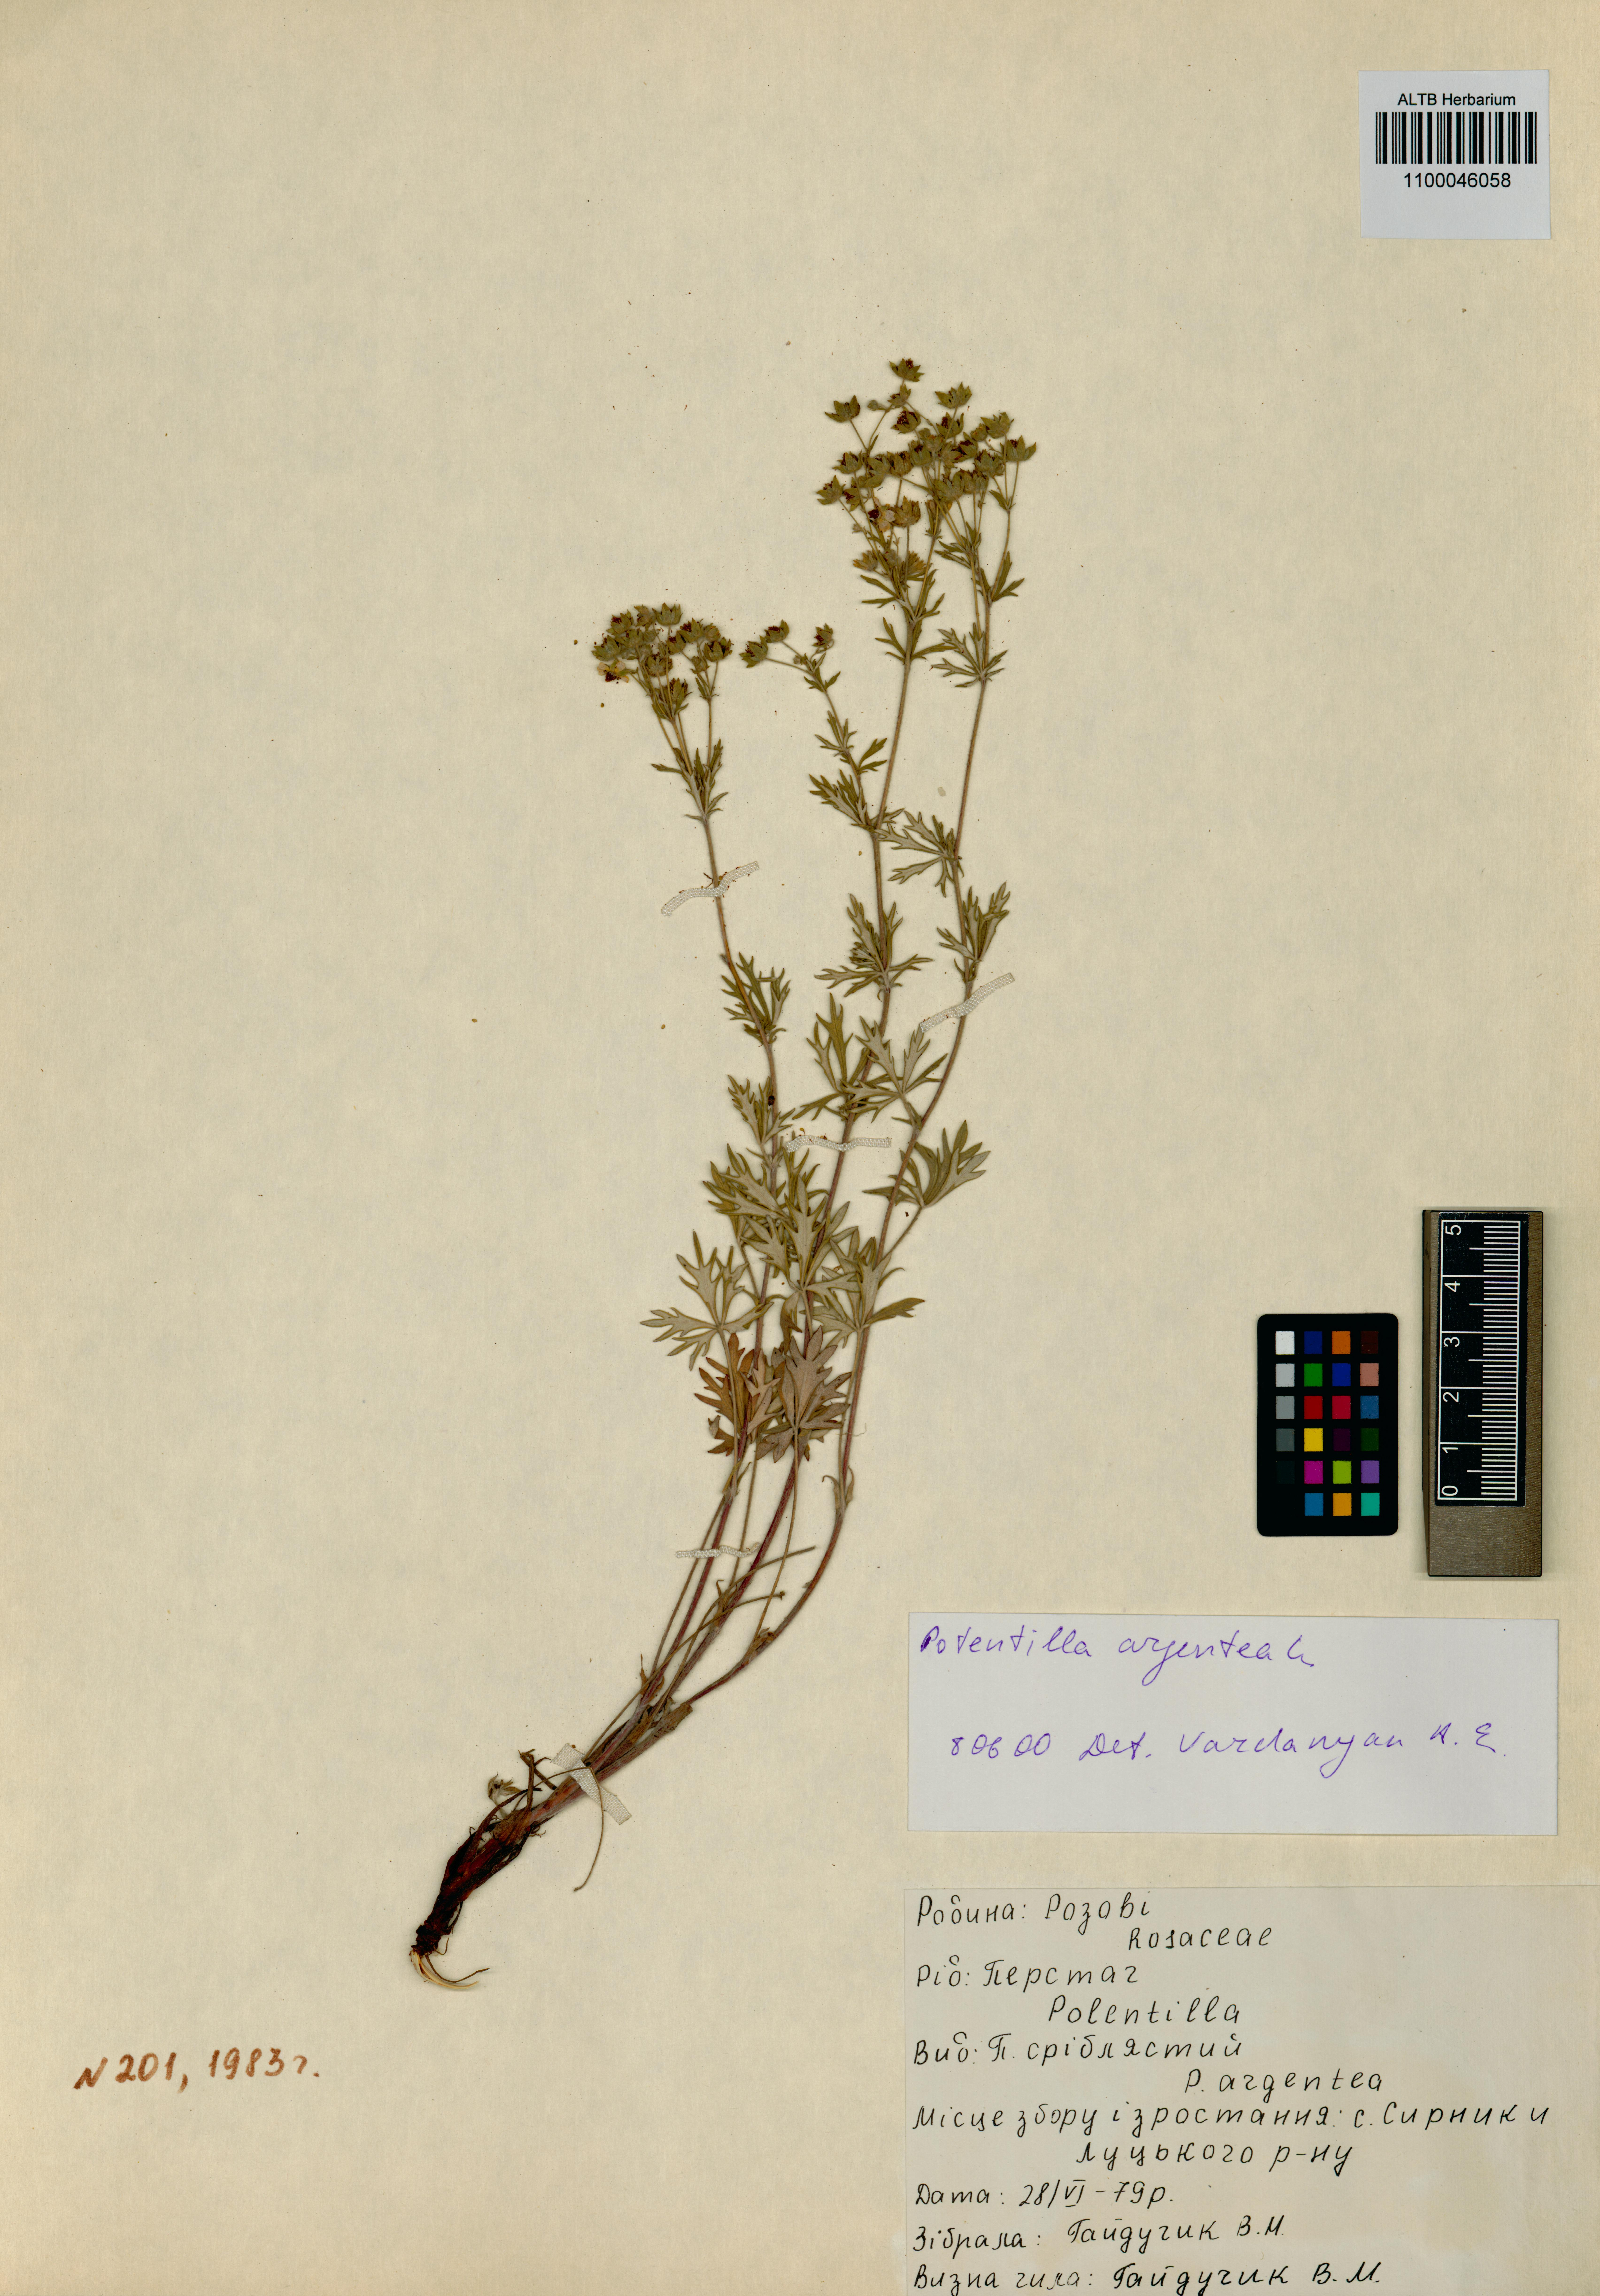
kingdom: Plantae
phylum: Tracheophyta
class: Magnoliopsida
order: Rosales
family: Rosaceae
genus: Potentilla
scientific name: Potentilla argentea
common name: Hoary cinquefoil
